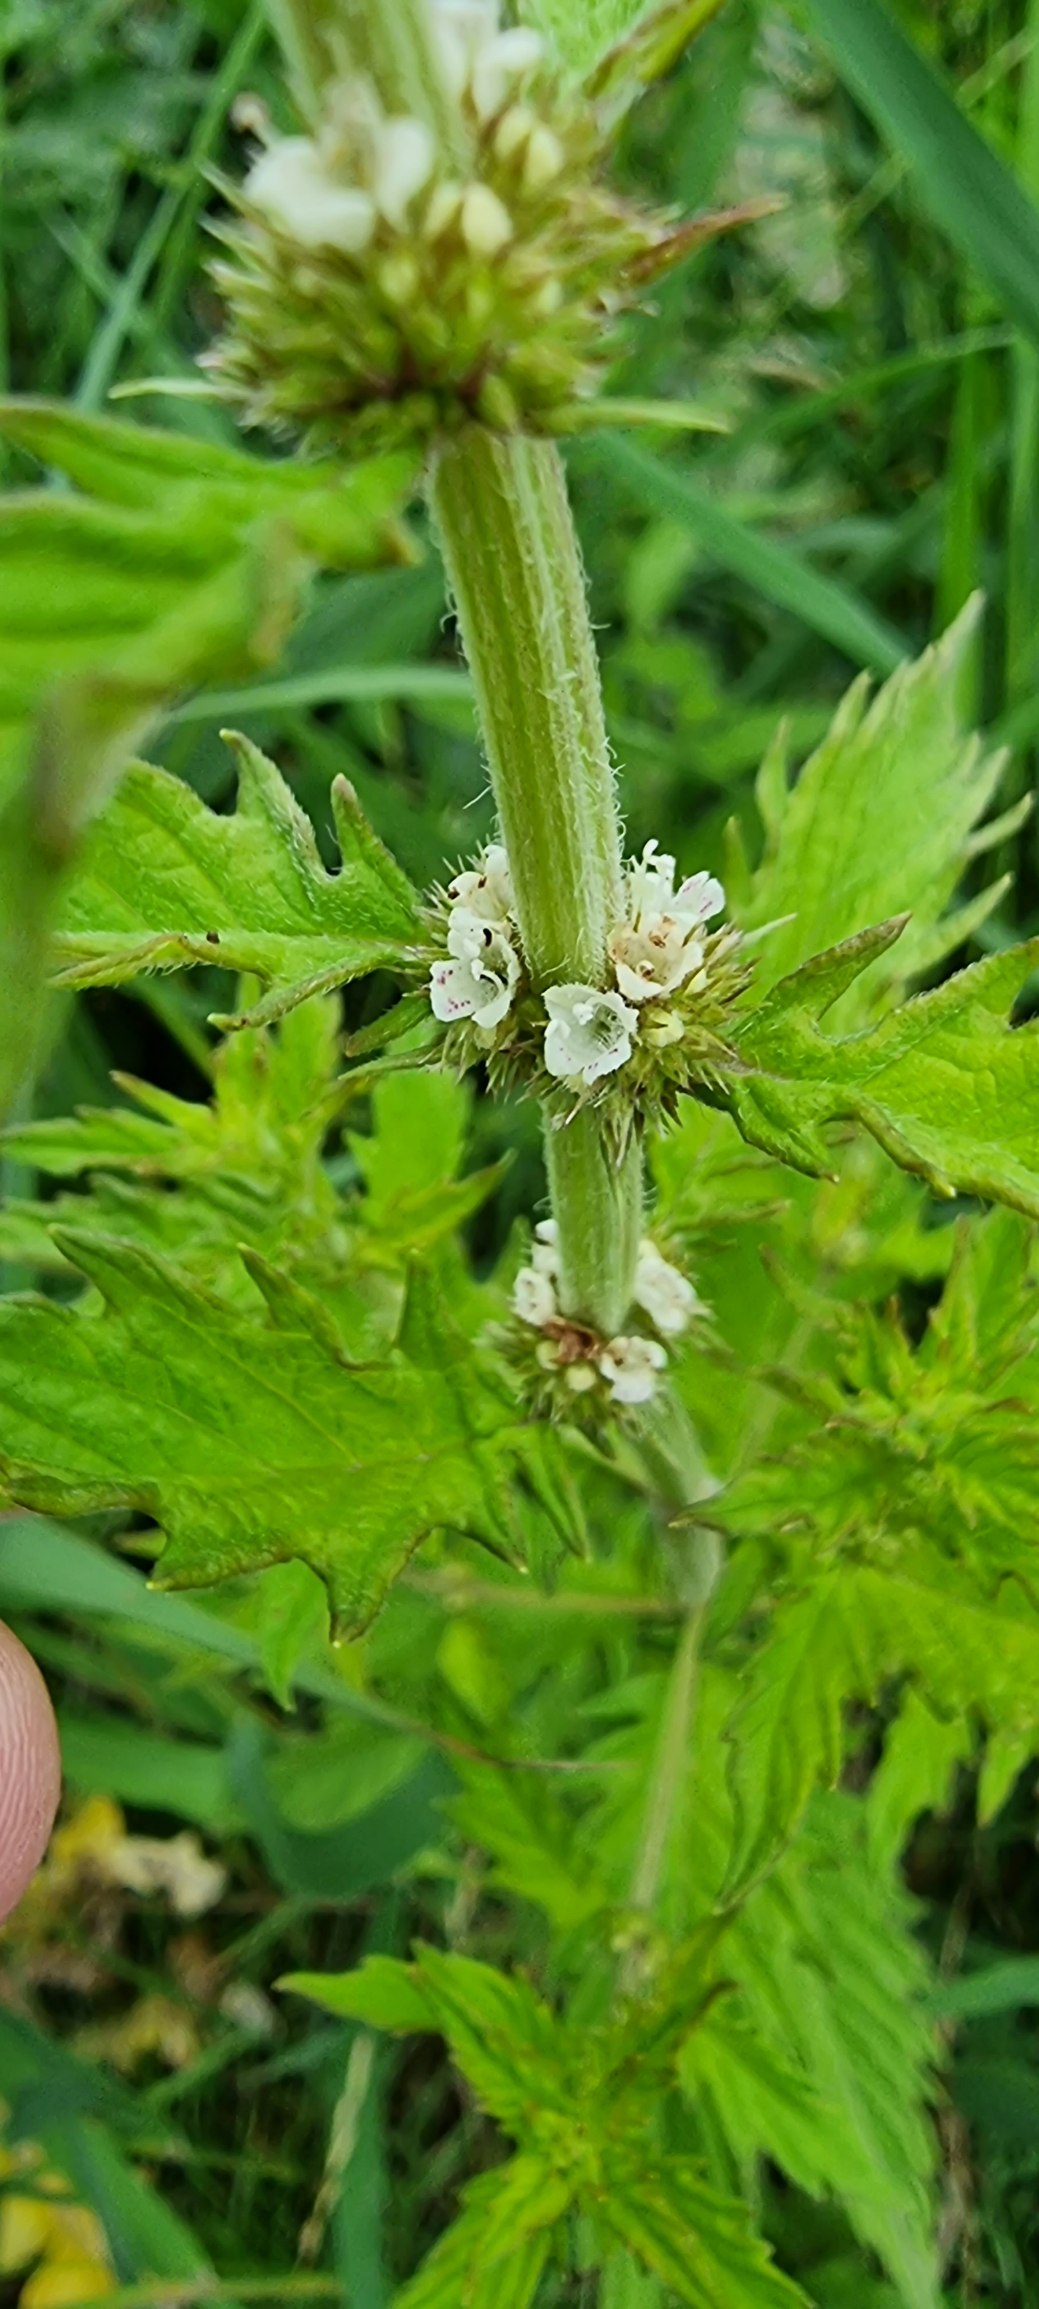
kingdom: Plantae
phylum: Tracheophyta
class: Magnoliopsida
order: Lamiales
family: Lamiaceae
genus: Lycopus
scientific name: Lycopus europaeus
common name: Sværtevæld
